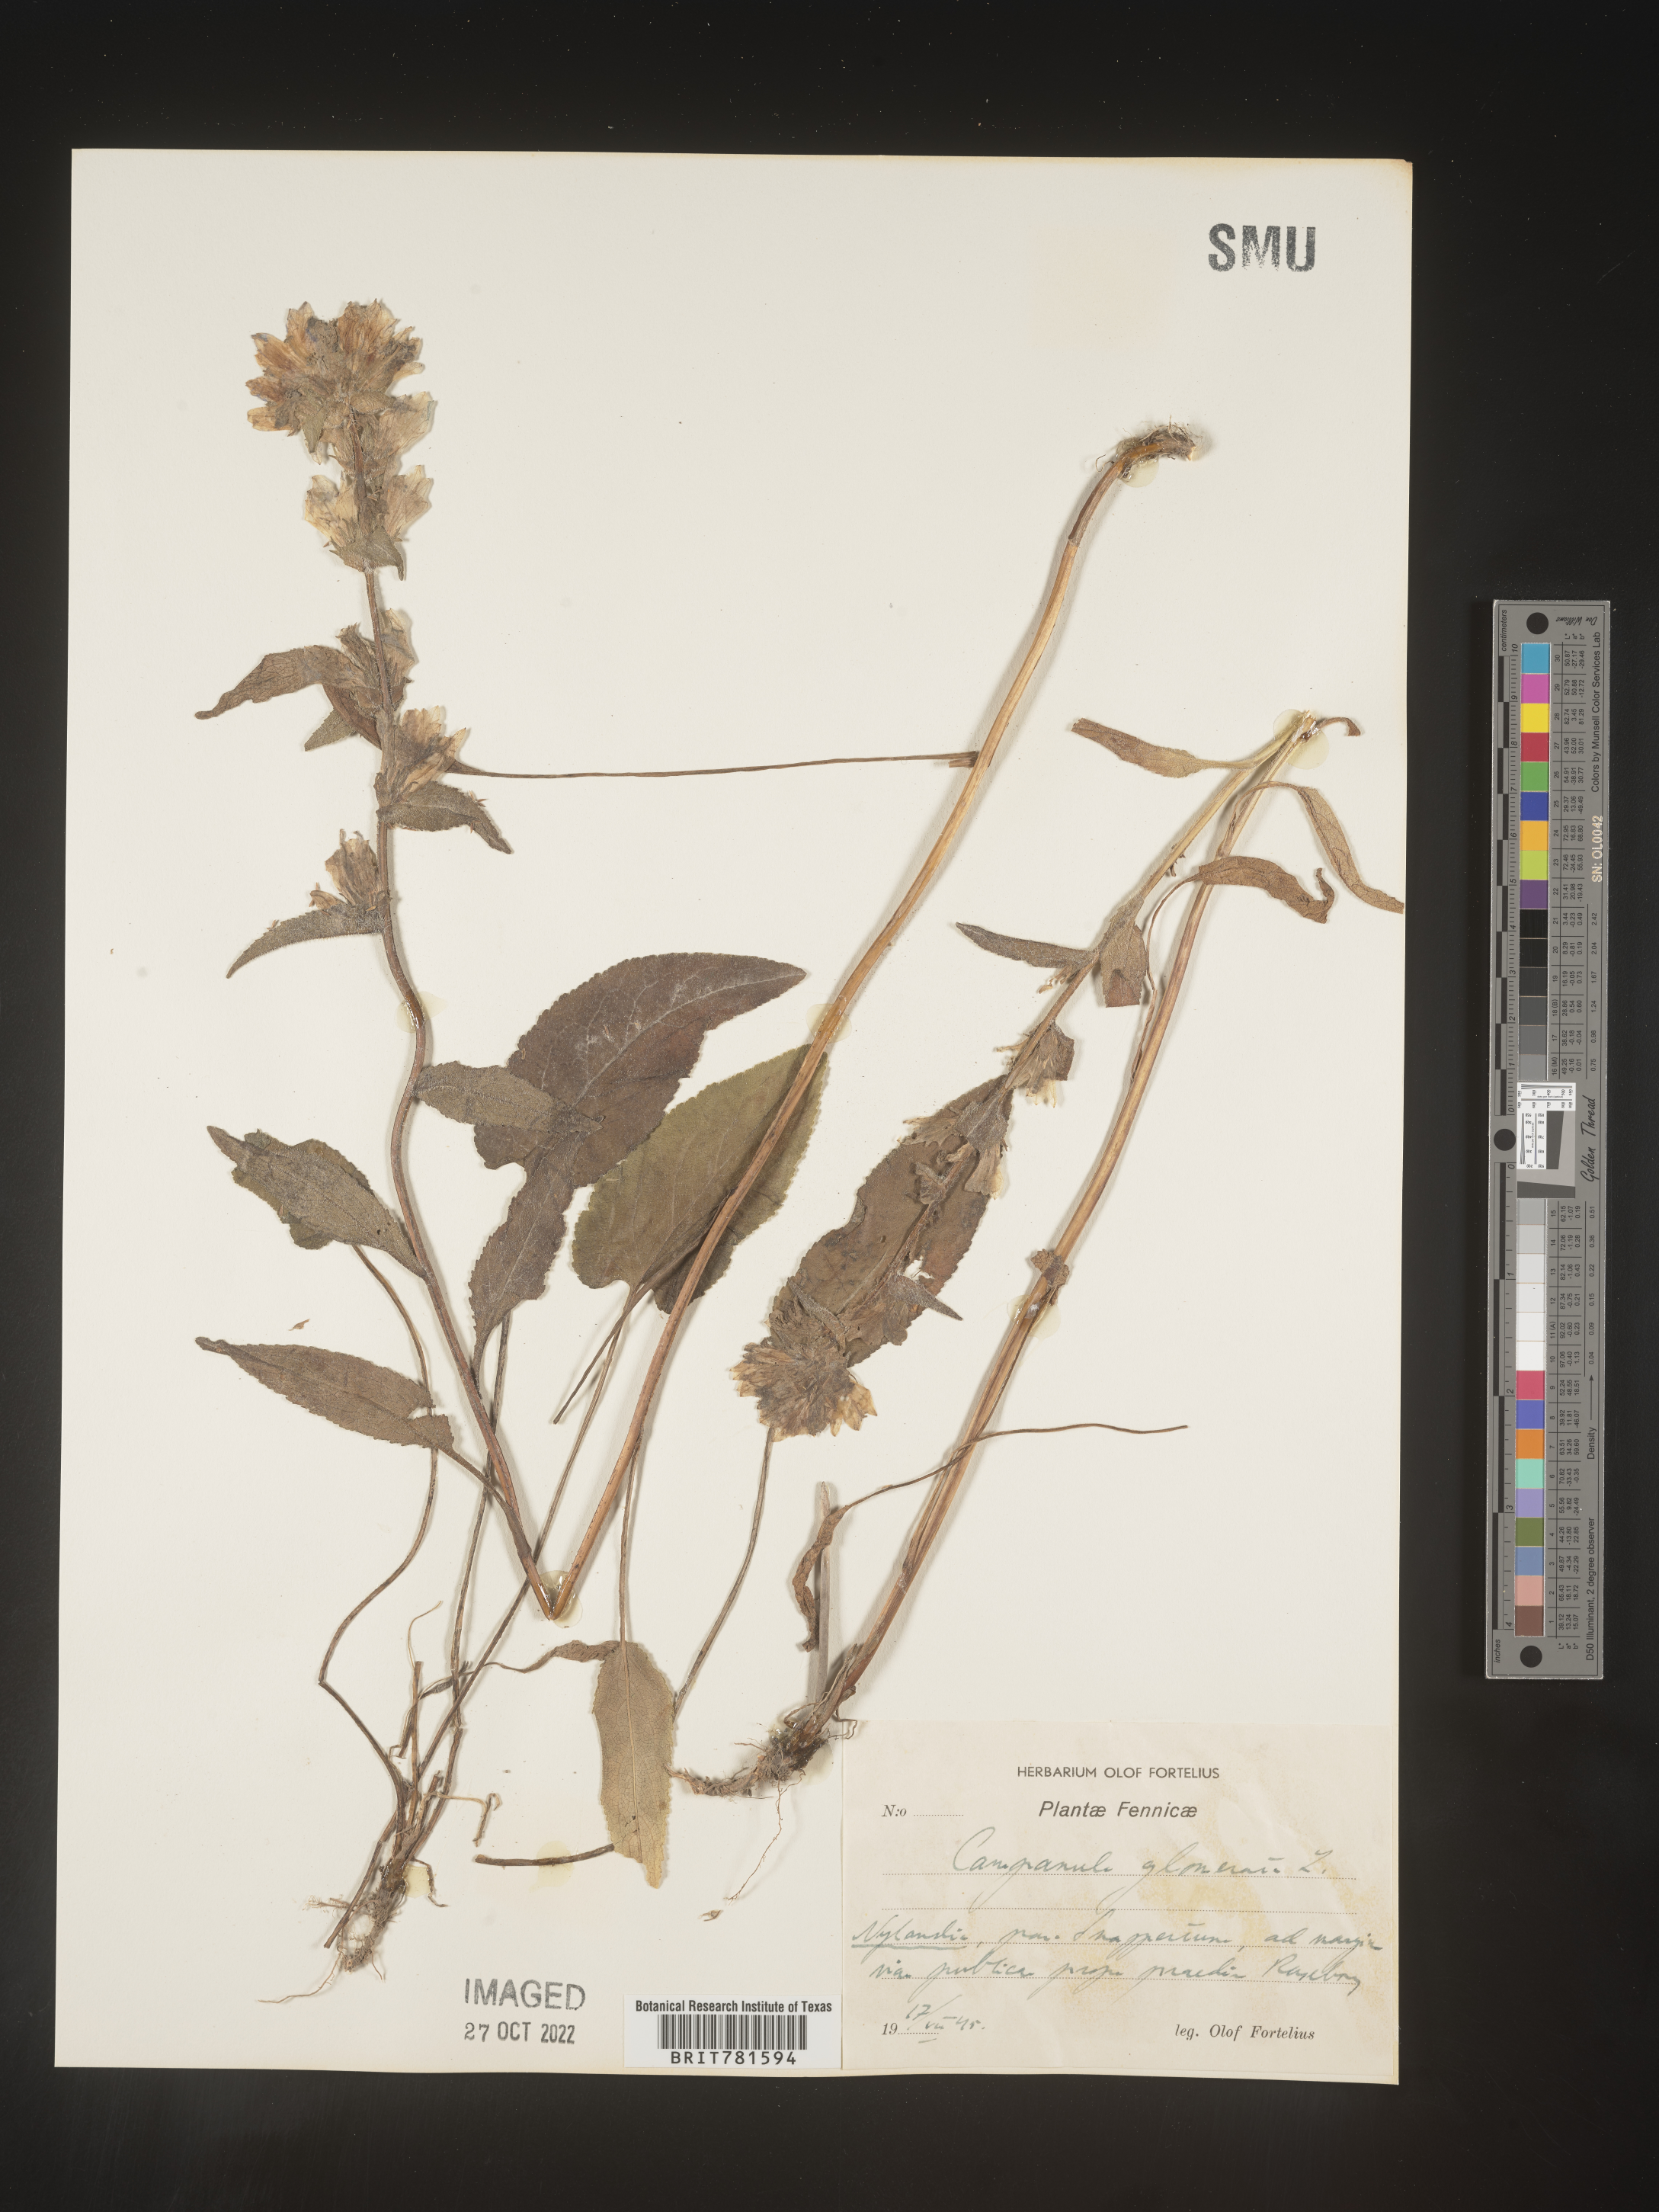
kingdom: Plantae
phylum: Tracheophyta
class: Magnoliopsida
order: Asterales
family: Campanulaceae
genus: Campanula
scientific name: Campanula
